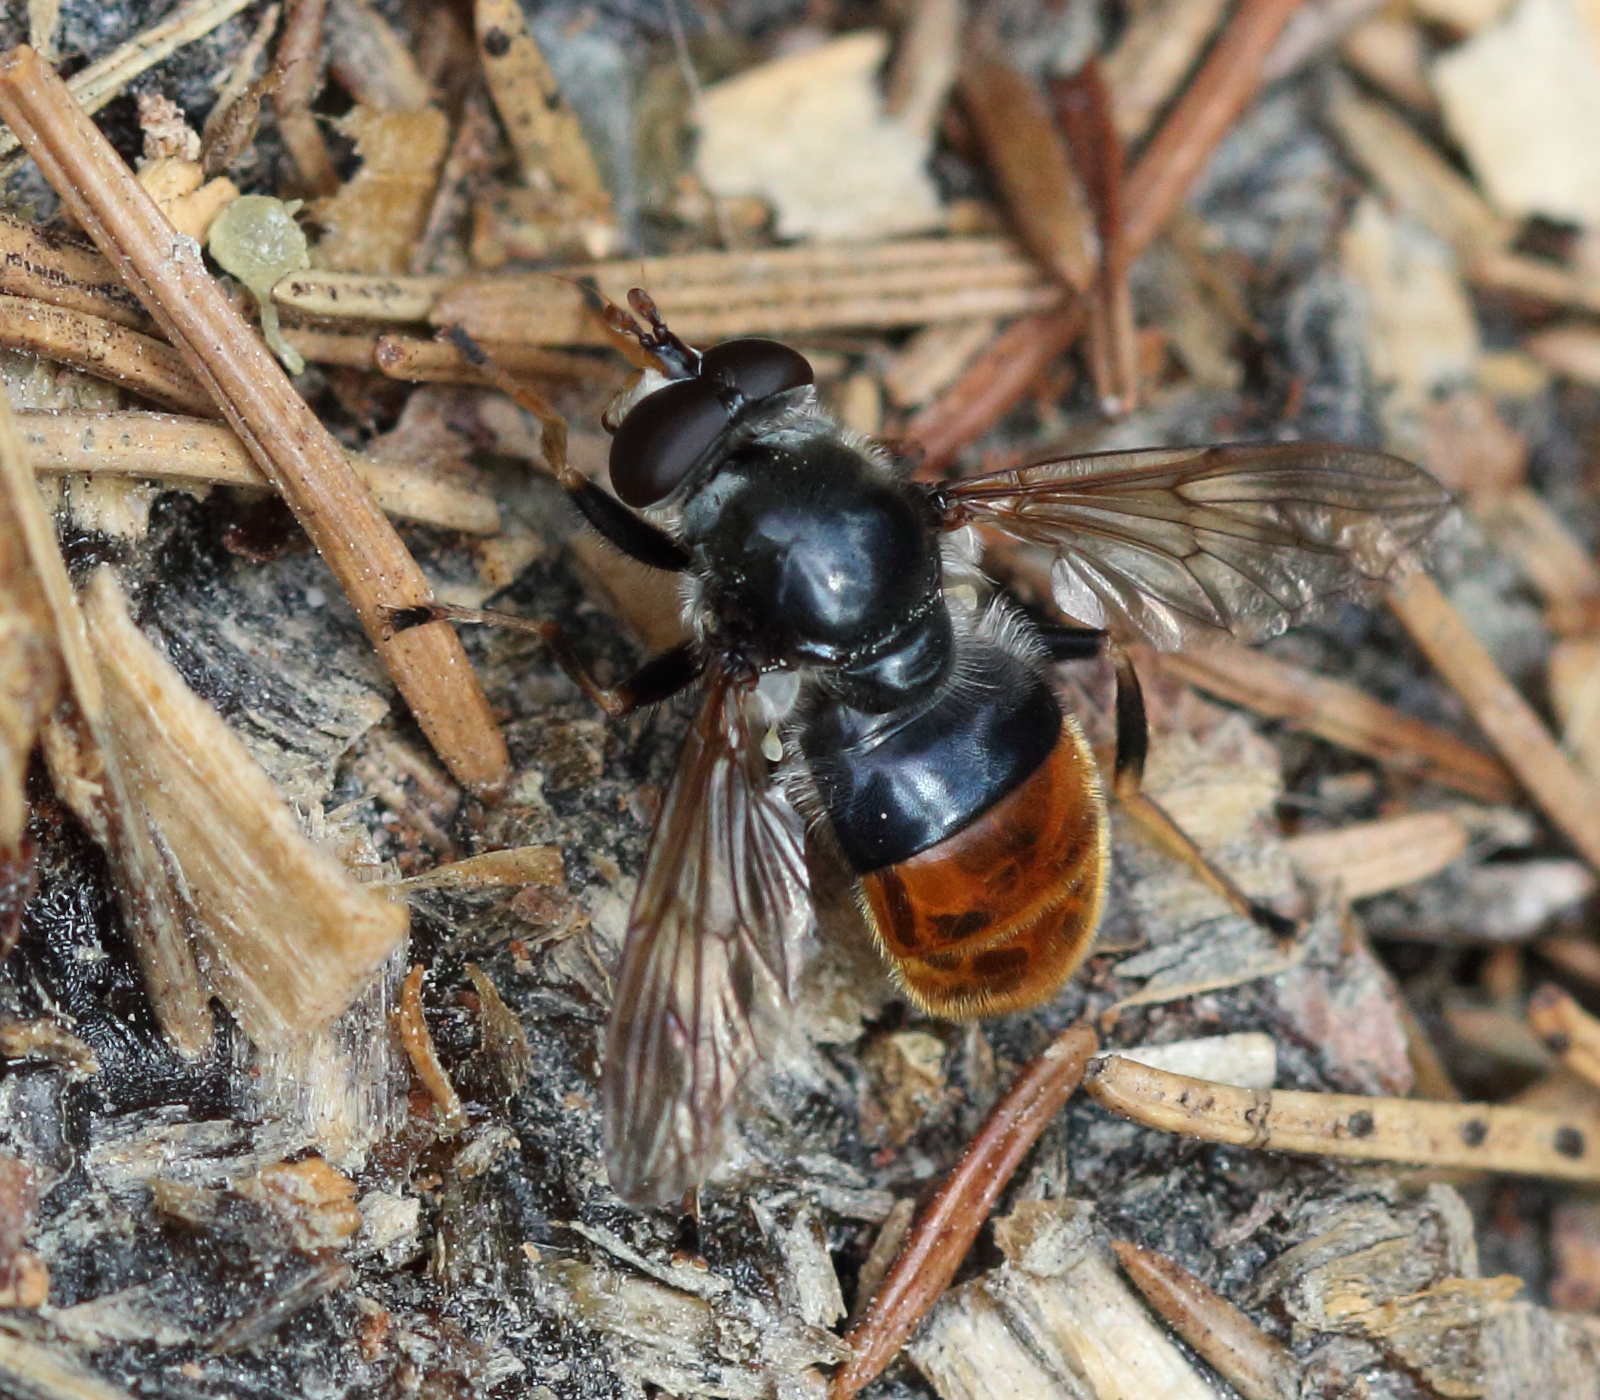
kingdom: Animalia
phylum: Arthropoda
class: Insecta
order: Diptera
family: Syrphidae
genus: Blera
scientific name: Blera fallax
